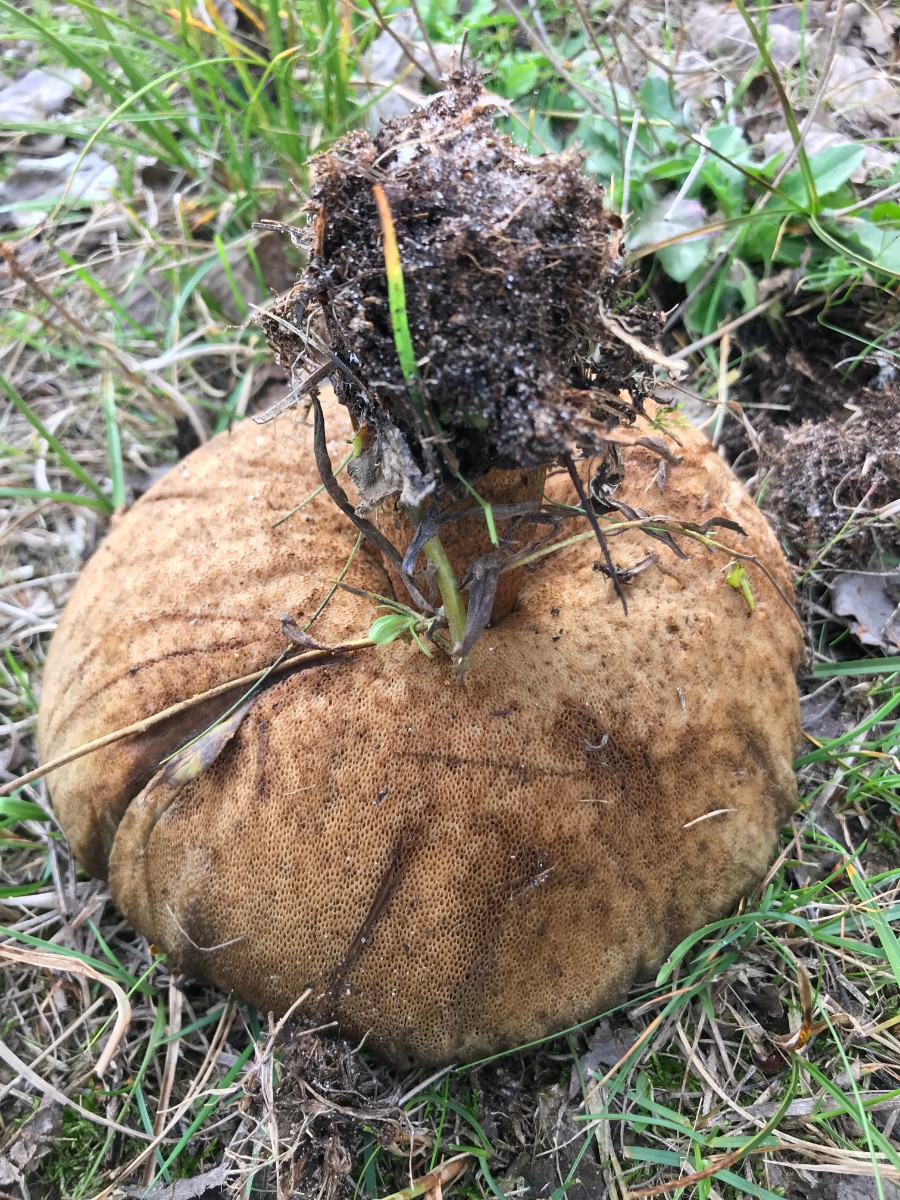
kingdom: Fungi
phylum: Basidiomycota
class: Agaricomycetes
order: Boletales
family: Boletaceae
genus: Leccinum
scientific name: Leccinum duriusculum
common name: poppel-skælrørhat
